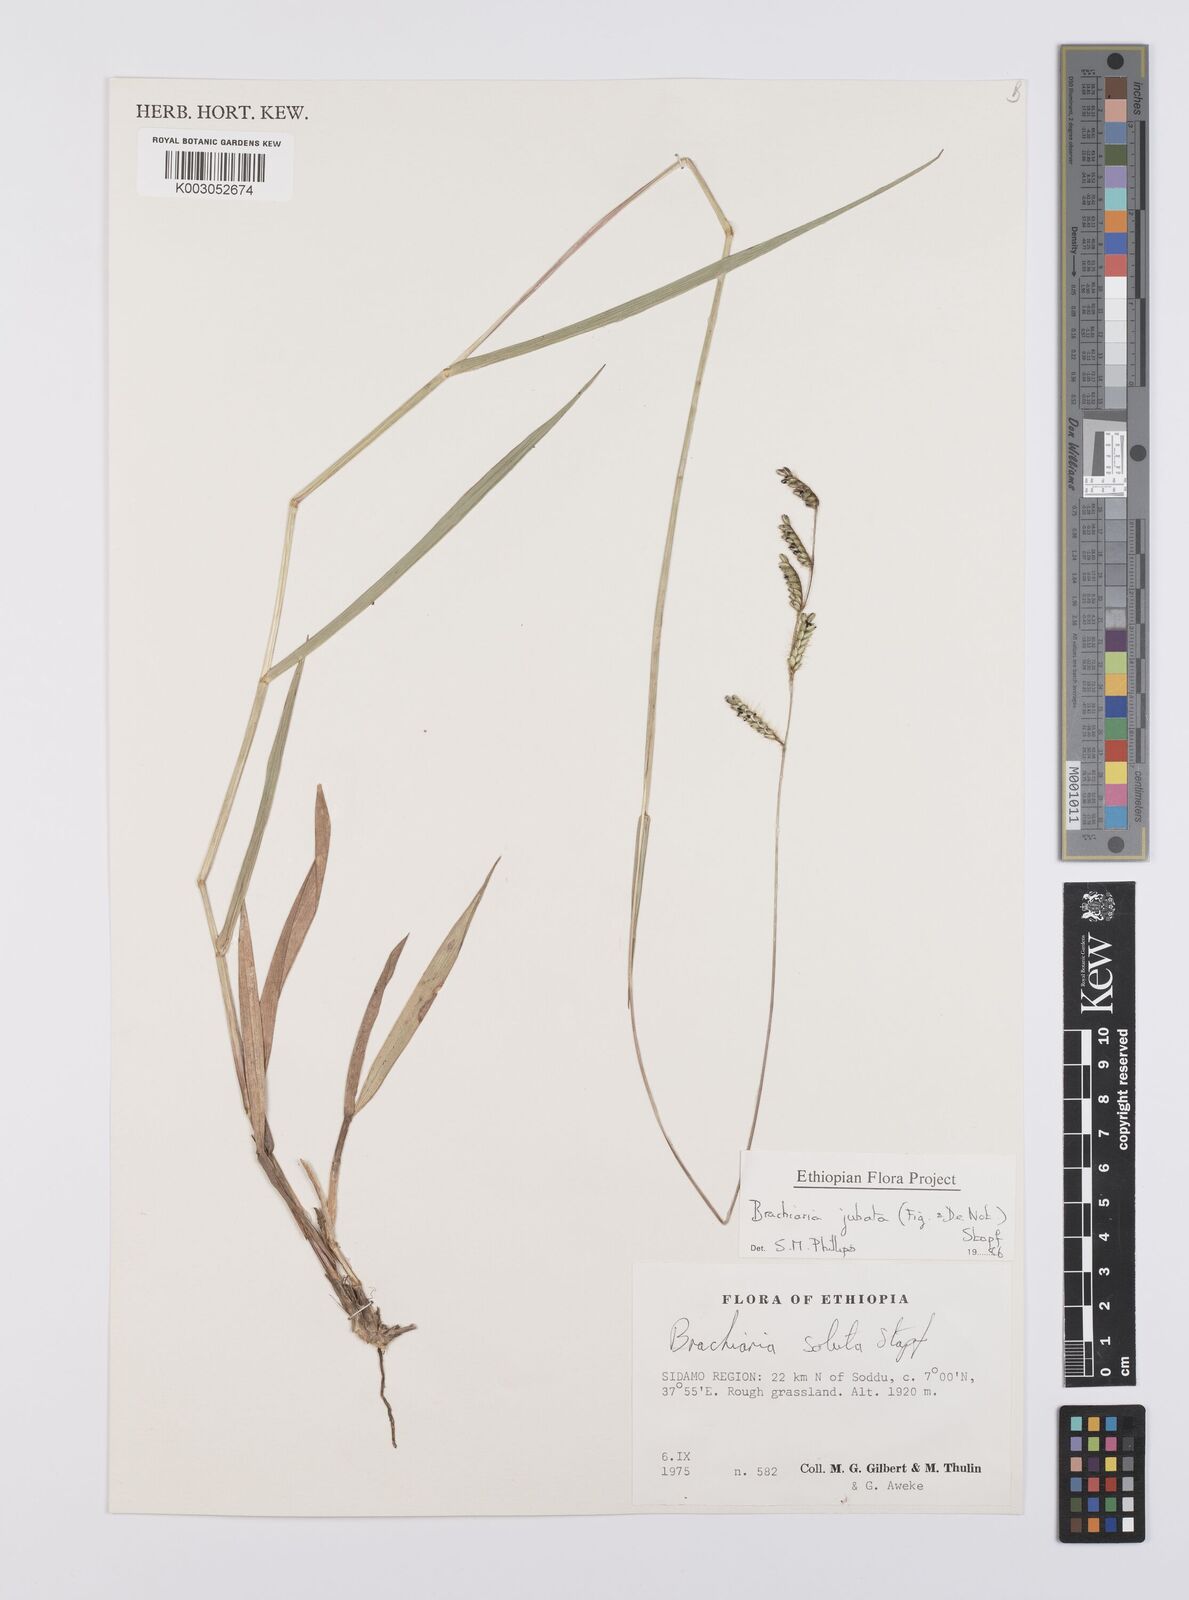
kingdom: Plantae
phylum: Tracheophyta
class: Liliopsida
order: Poales
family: Poaceae
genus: Urochloa
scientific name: Urochloa jubata
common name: Buffalograss
